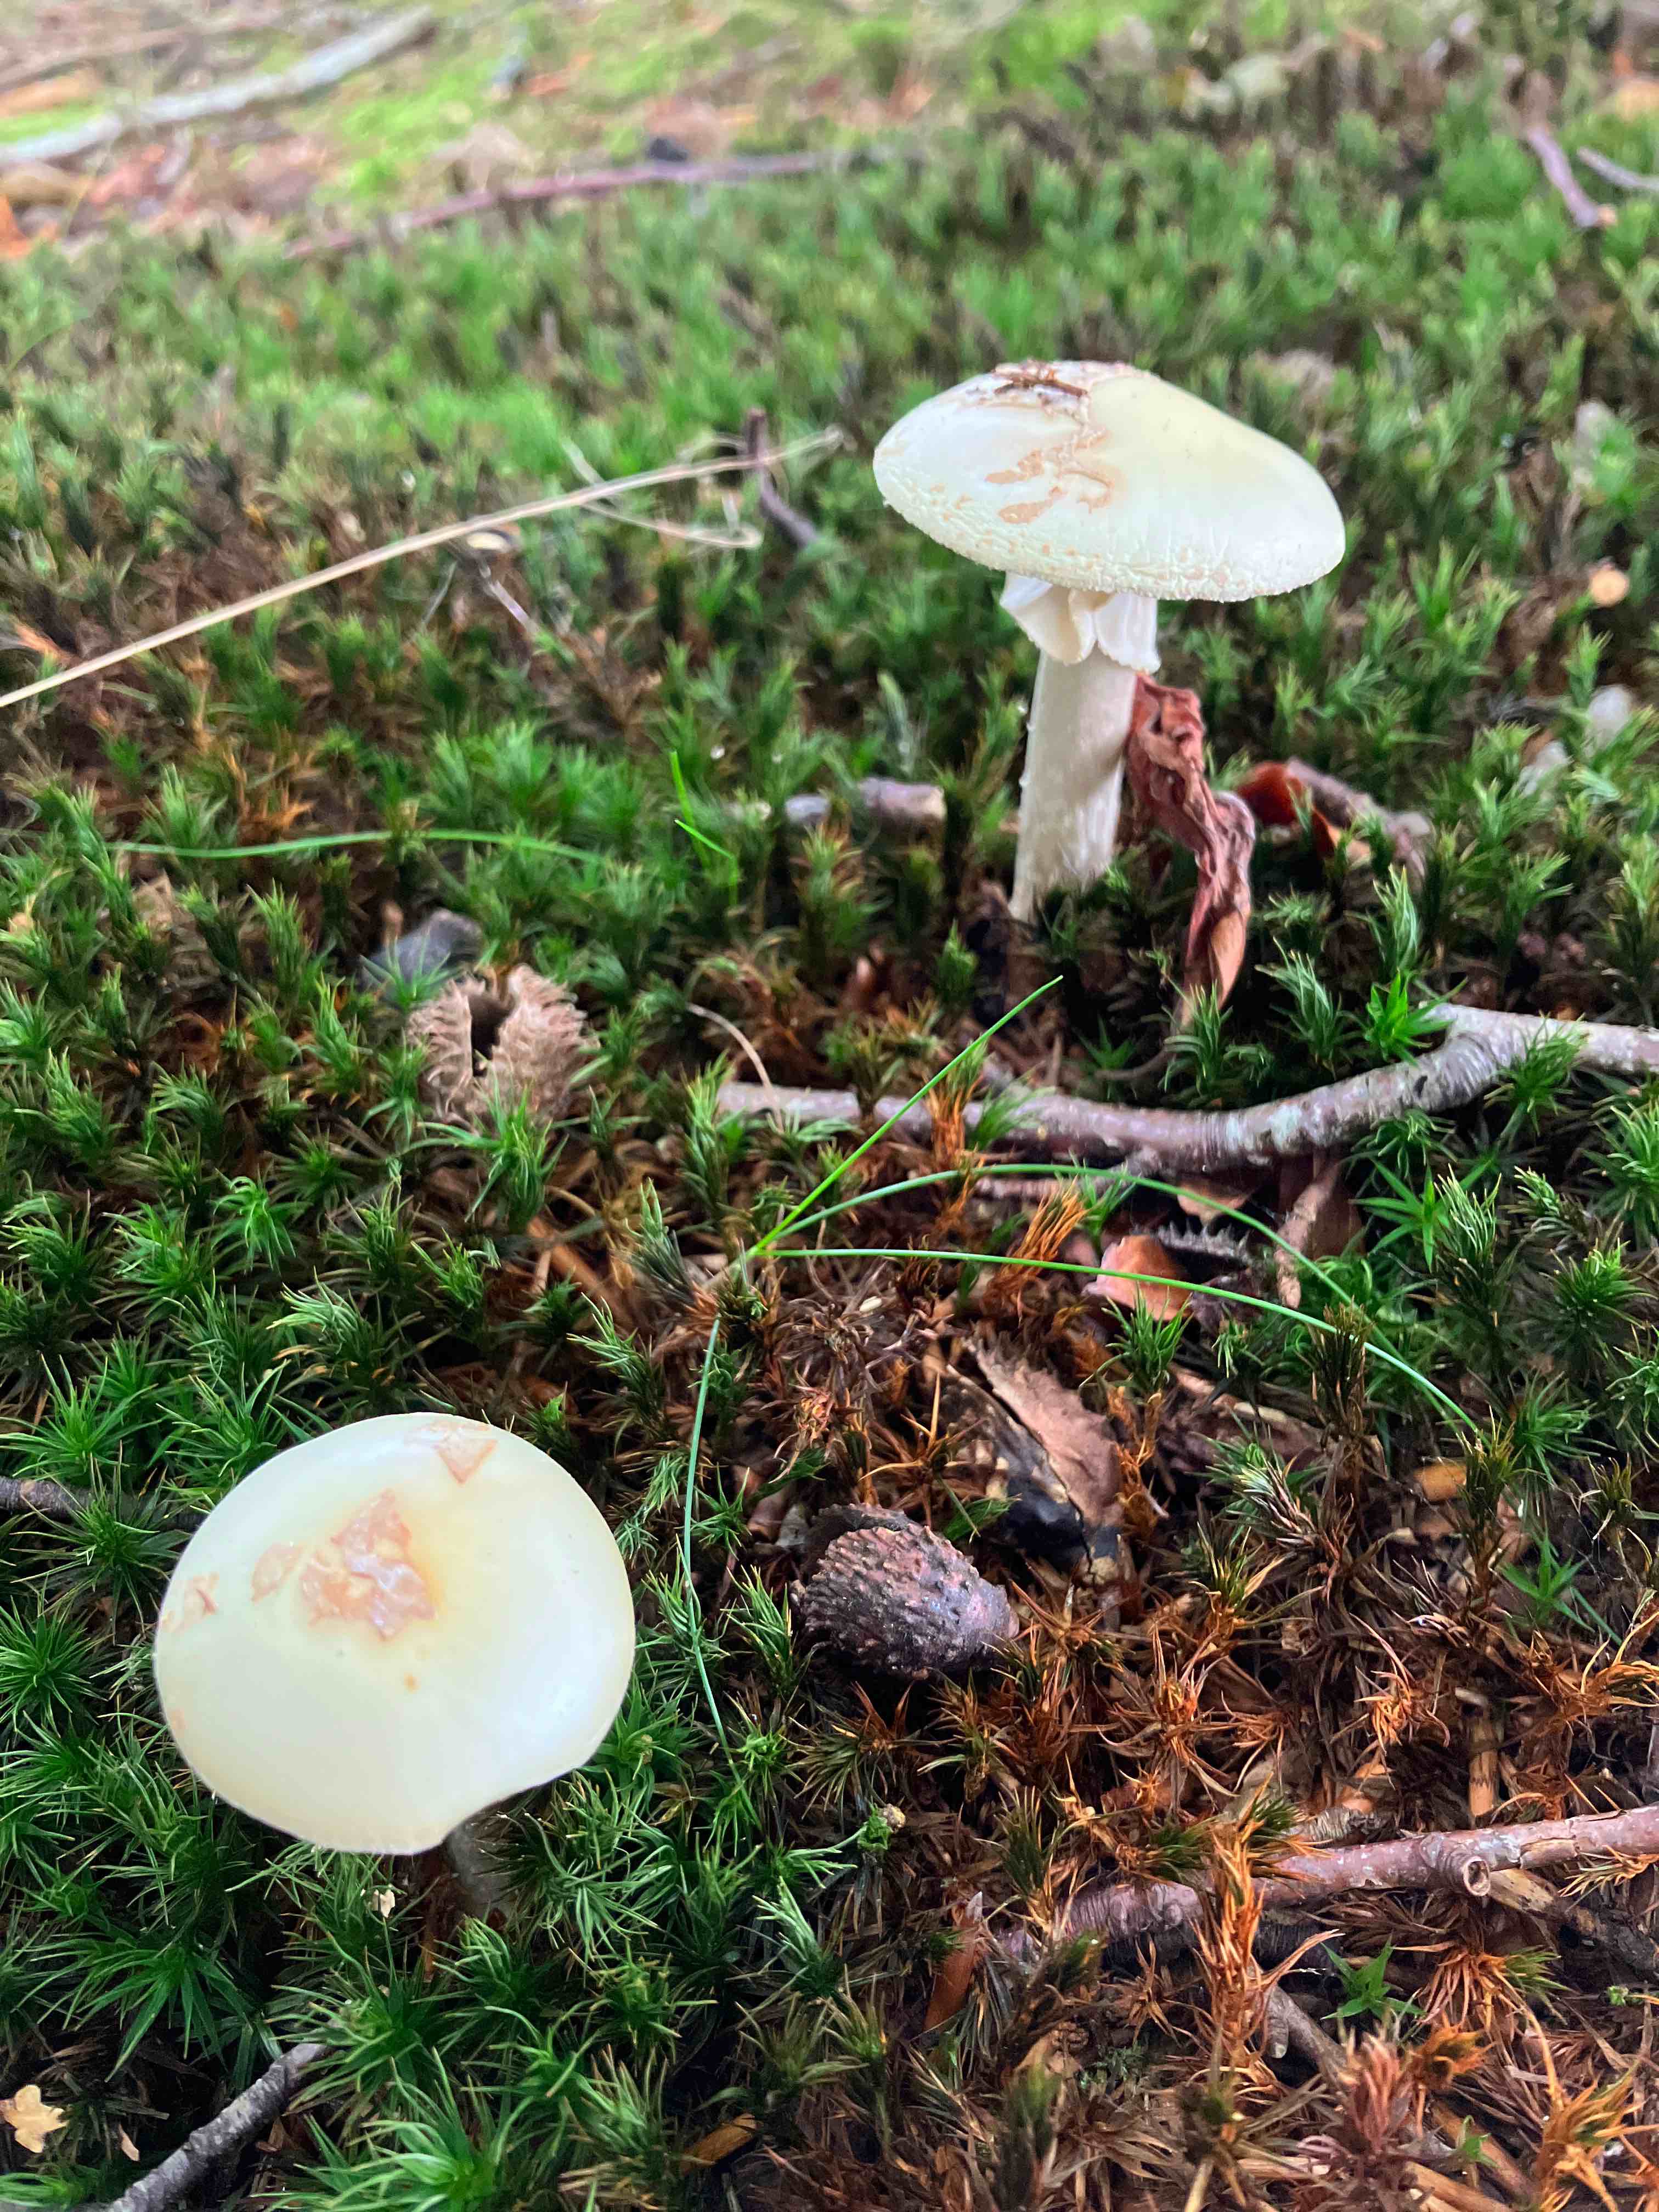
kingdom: Fungi
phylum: Basidiomycota
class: Agaricomycetes
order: Agaricales
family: Amanitaceae
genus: Amanita
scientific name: Amanita citrina
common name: kugleknoldet fluesvamp
